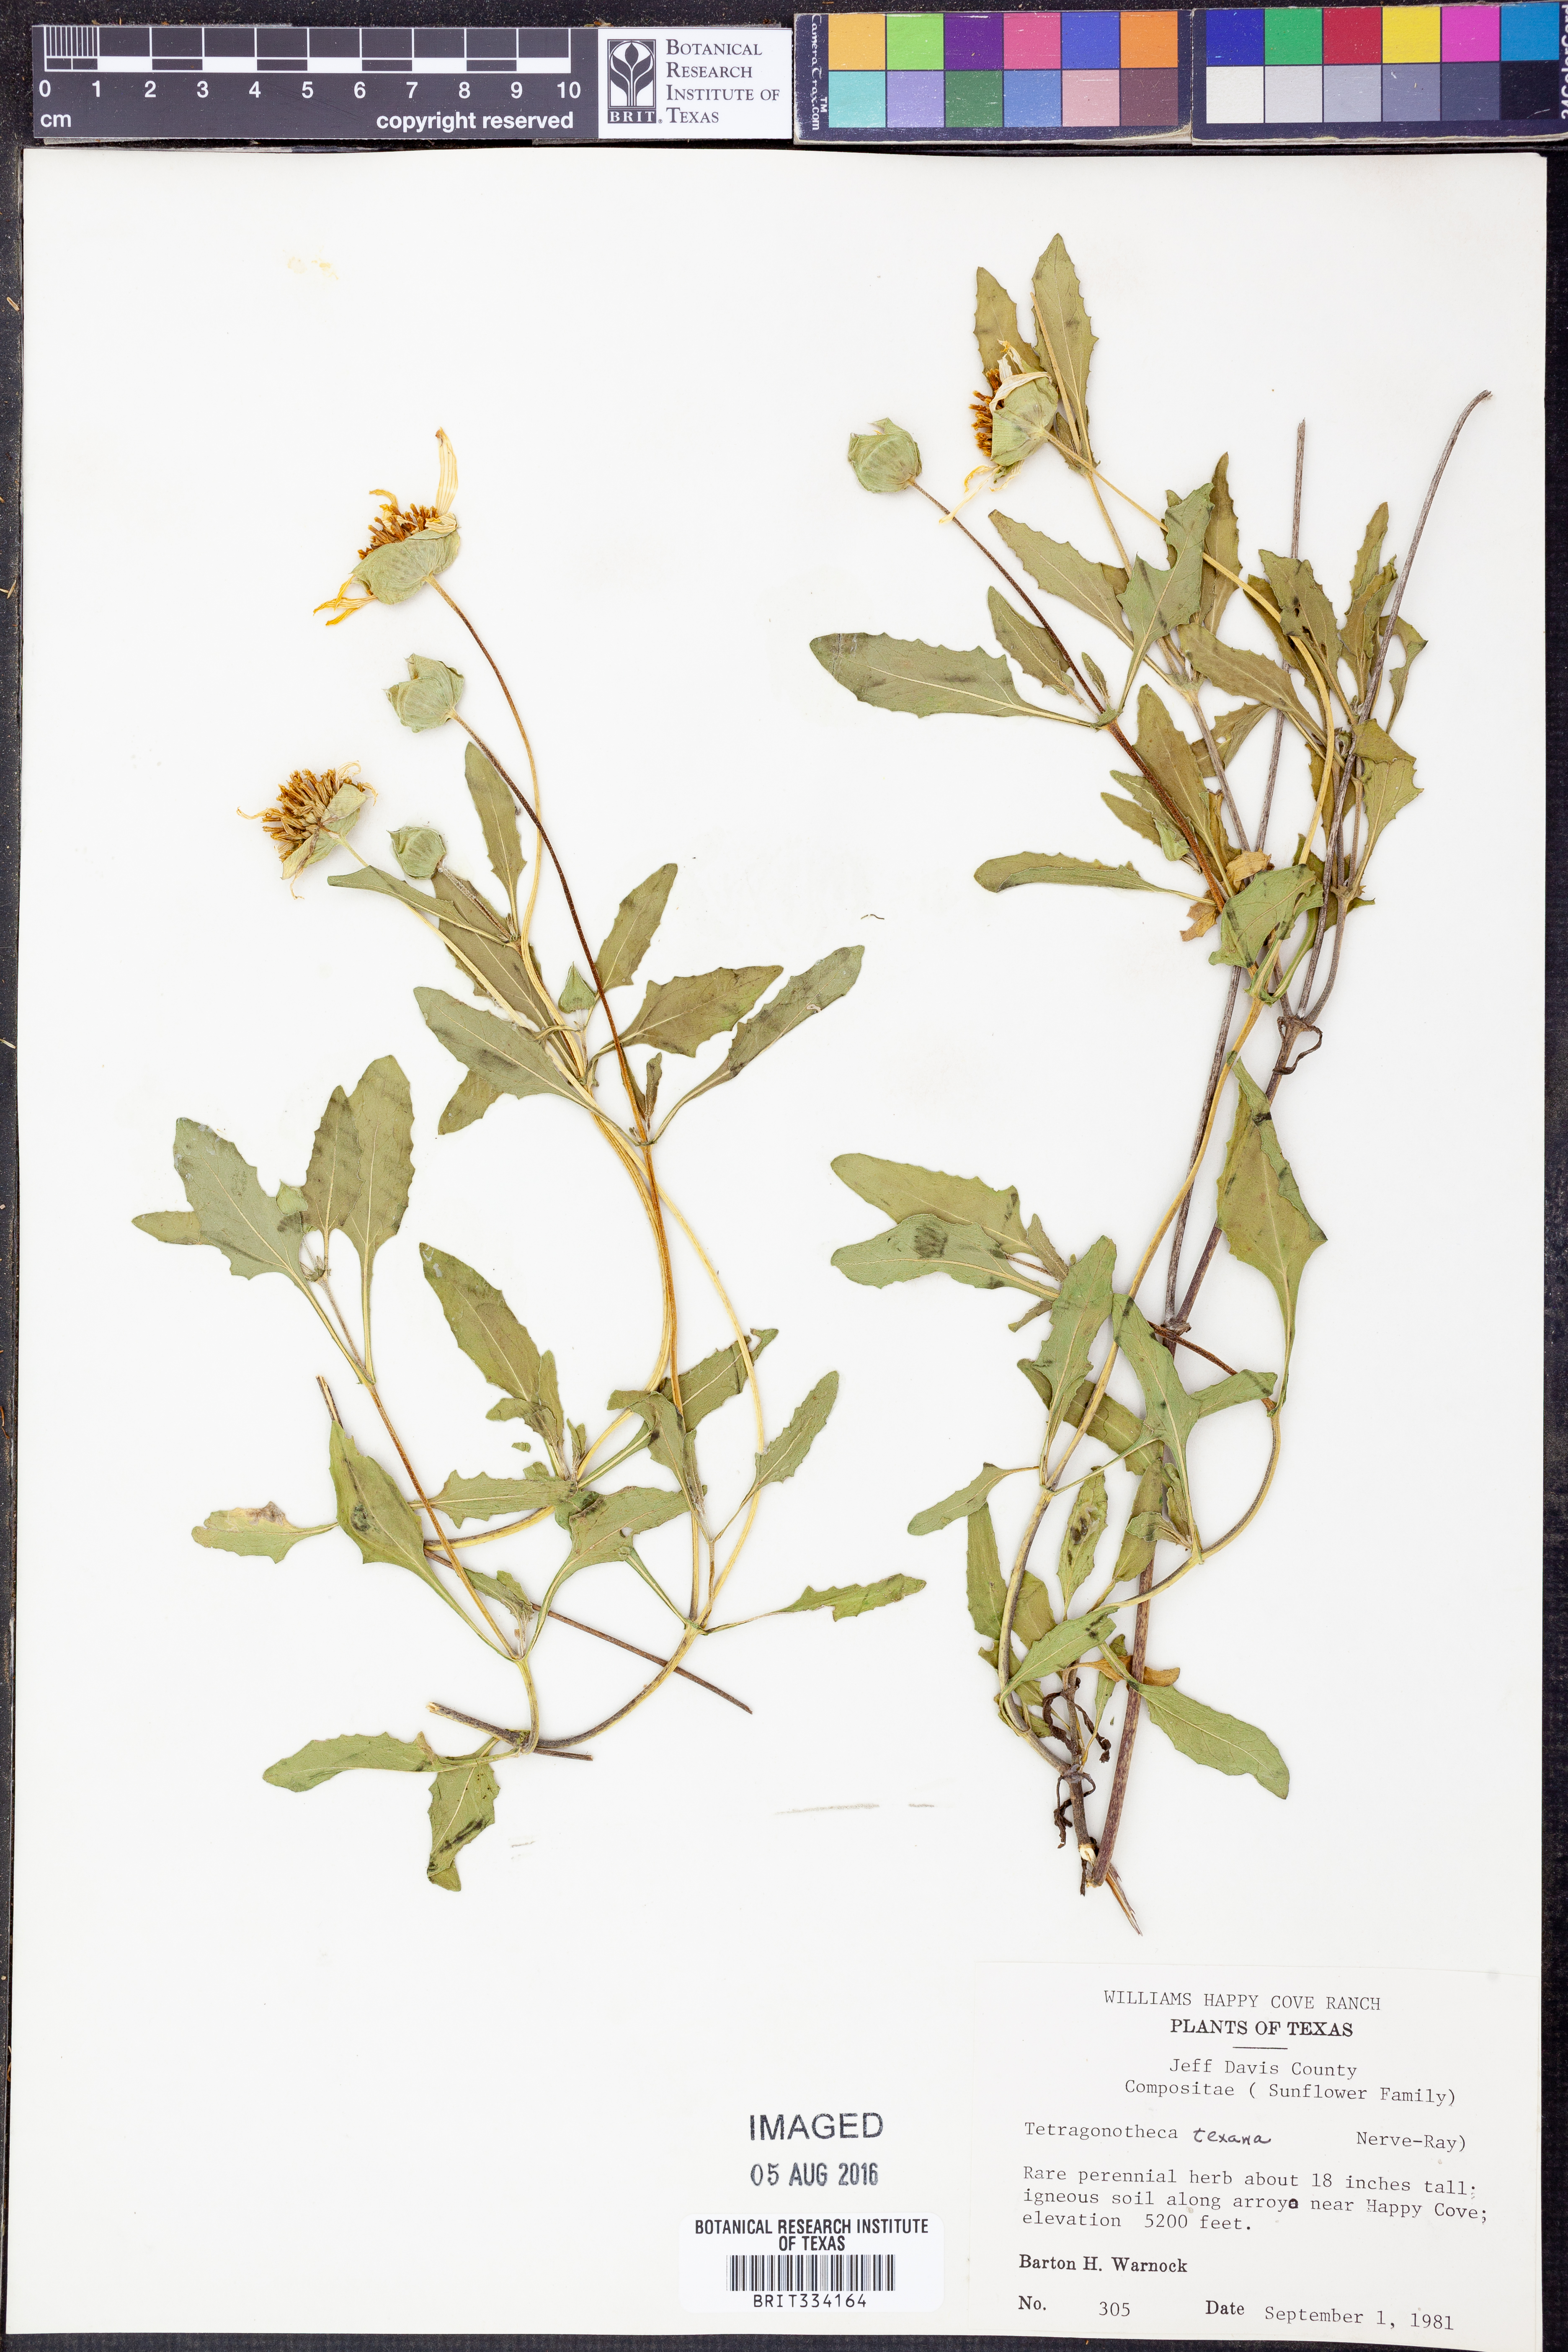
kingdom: Plantae
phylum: Tracheophyta
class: Magnoliopsida
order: Asterales
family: Asteraceae
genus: Tetragonotheca
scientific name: Tetragonotheca texana
